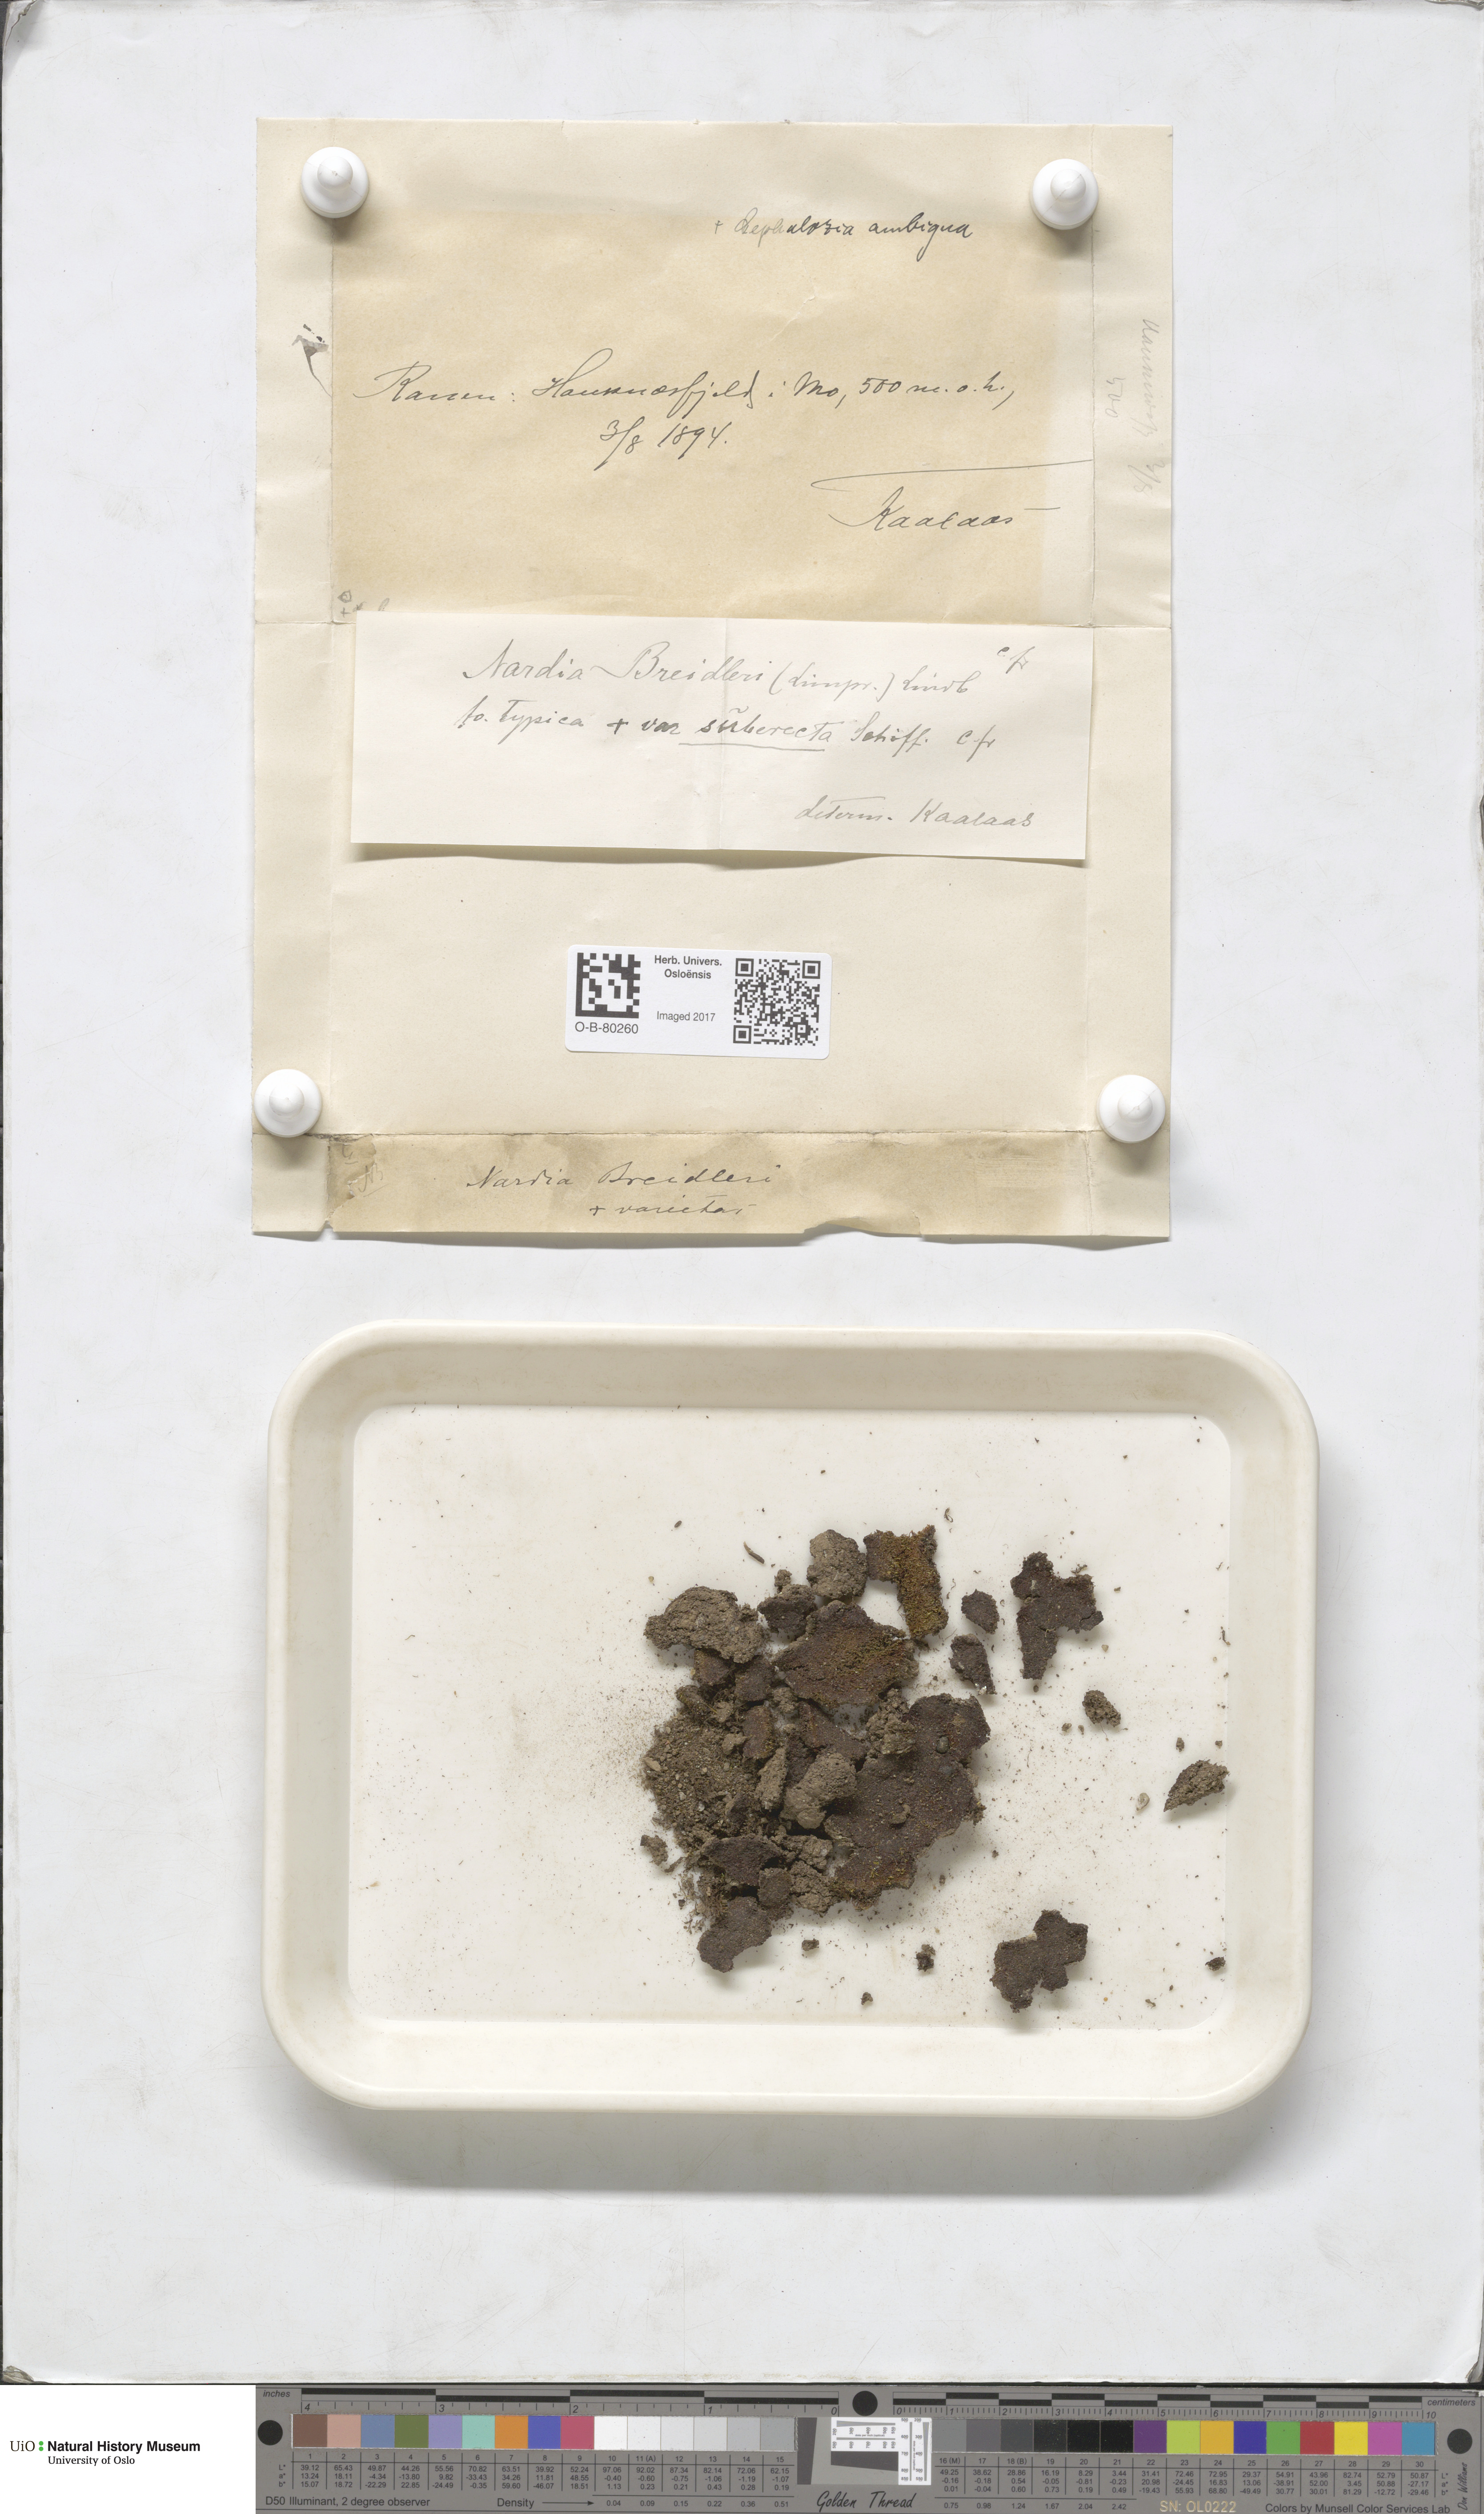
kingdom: Plantae
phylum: Marchantiophyta
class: Jungermanniopsida
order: Jungermanniales
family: Gymnomitriaceae
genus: Nardia
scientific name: Nardia breidleri
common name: Book flapwort
